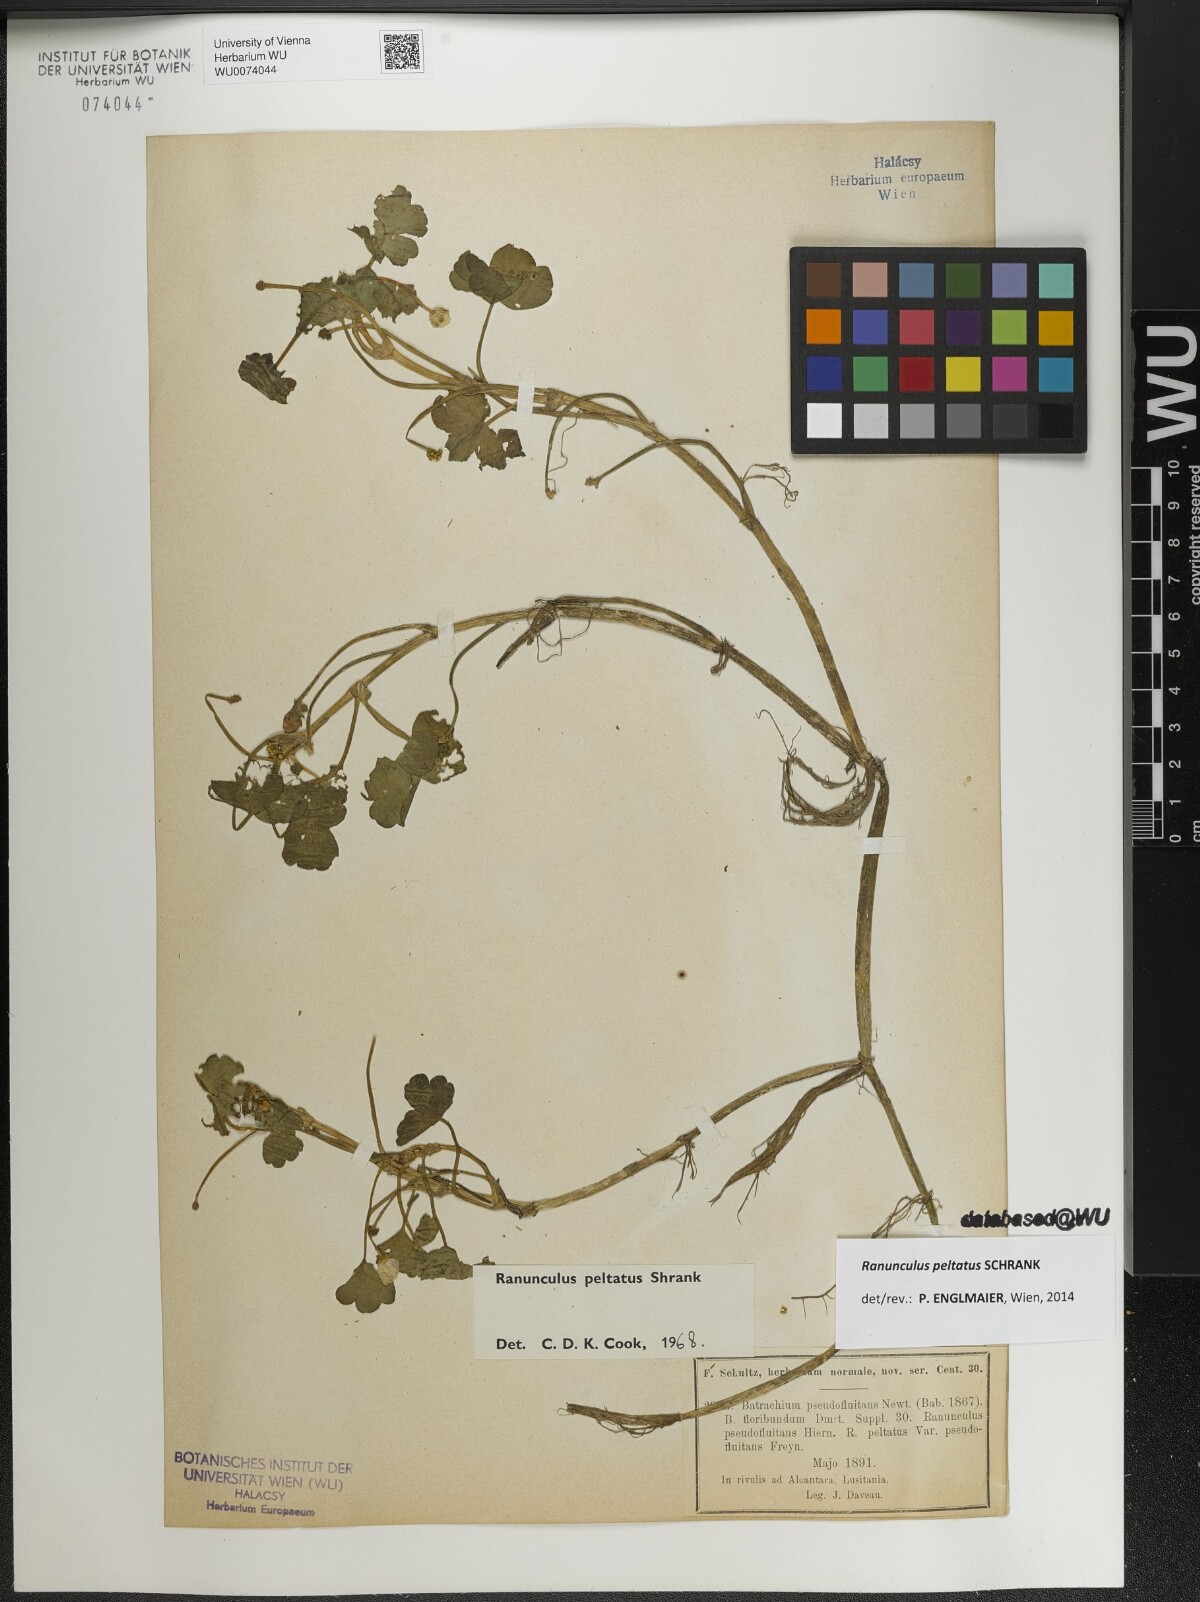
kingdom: Plantae
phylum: Tracheophyta
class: Magnoliopsida
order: Ranunculales
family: Ranunculaceae
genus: Ranunculus
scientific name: Ranunculus peltatus
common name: Pond water-crowfoot
